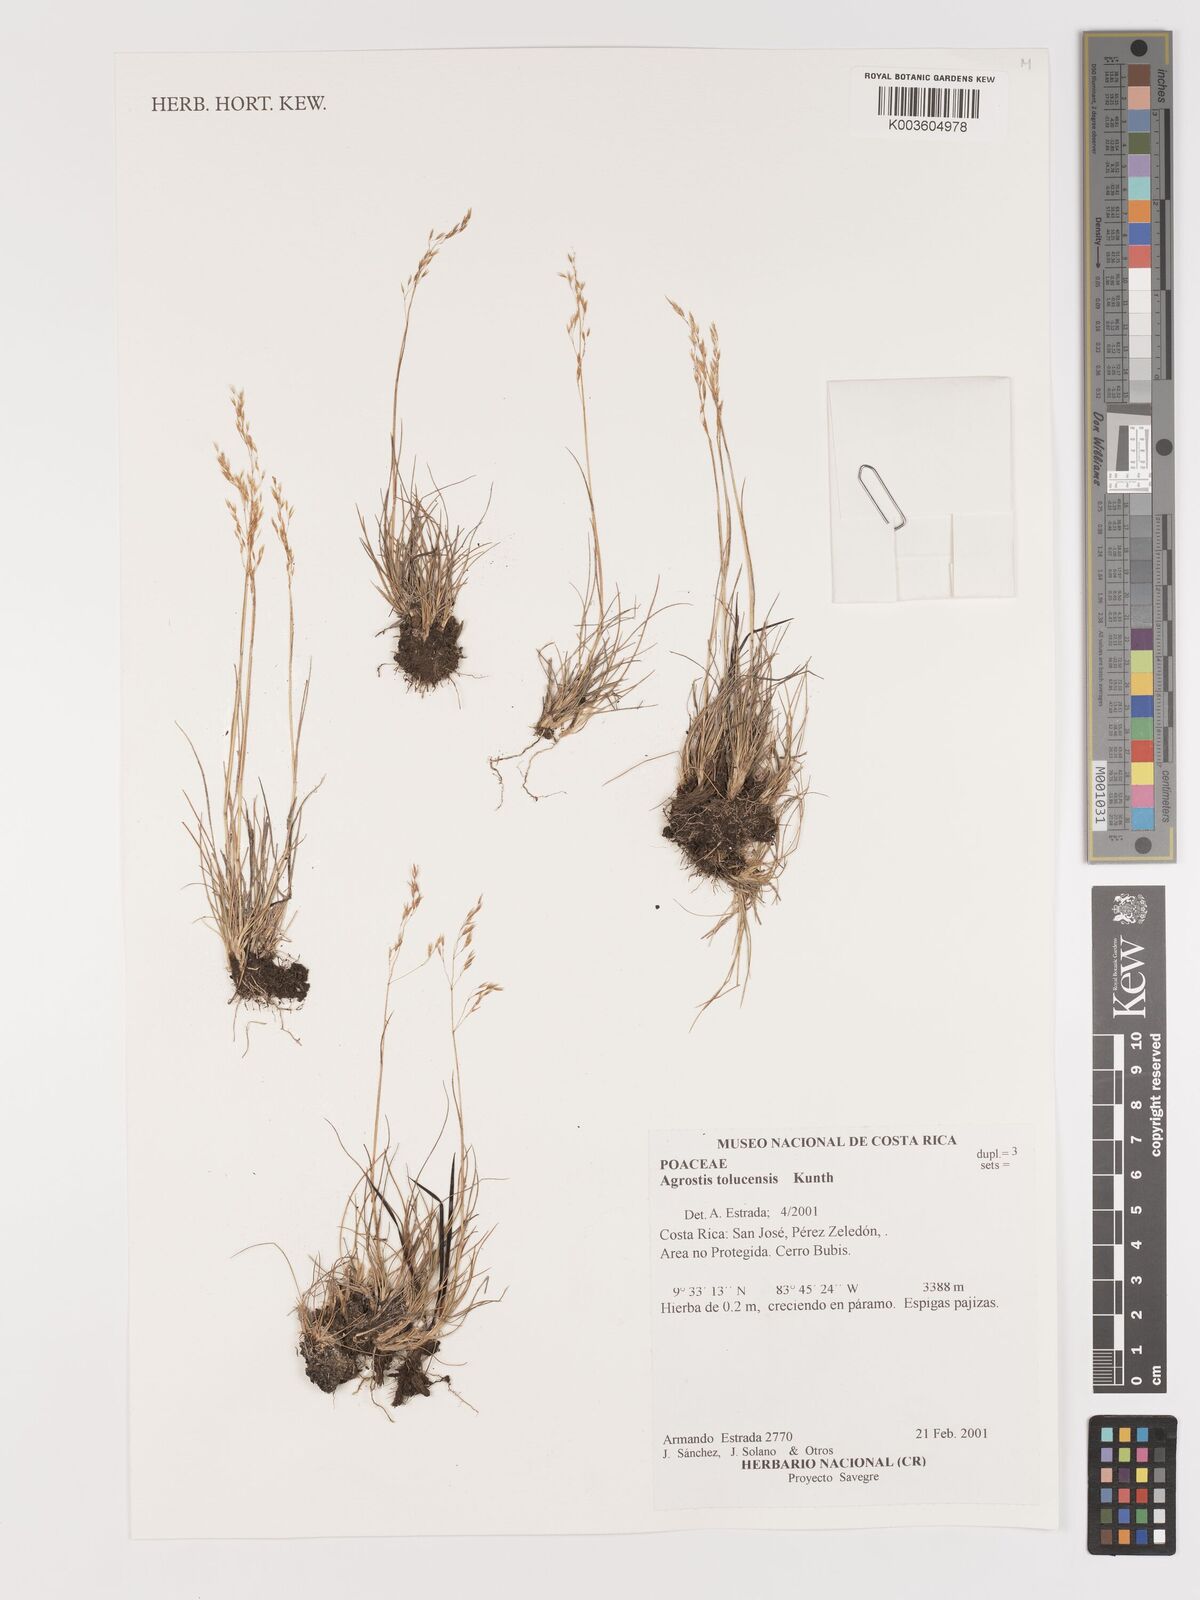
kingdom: Plantae
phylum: Tracheophyta
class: Liliopsida
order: Poales
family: Poaceae
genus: Agrostis
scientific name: Agrostis tolucensis
